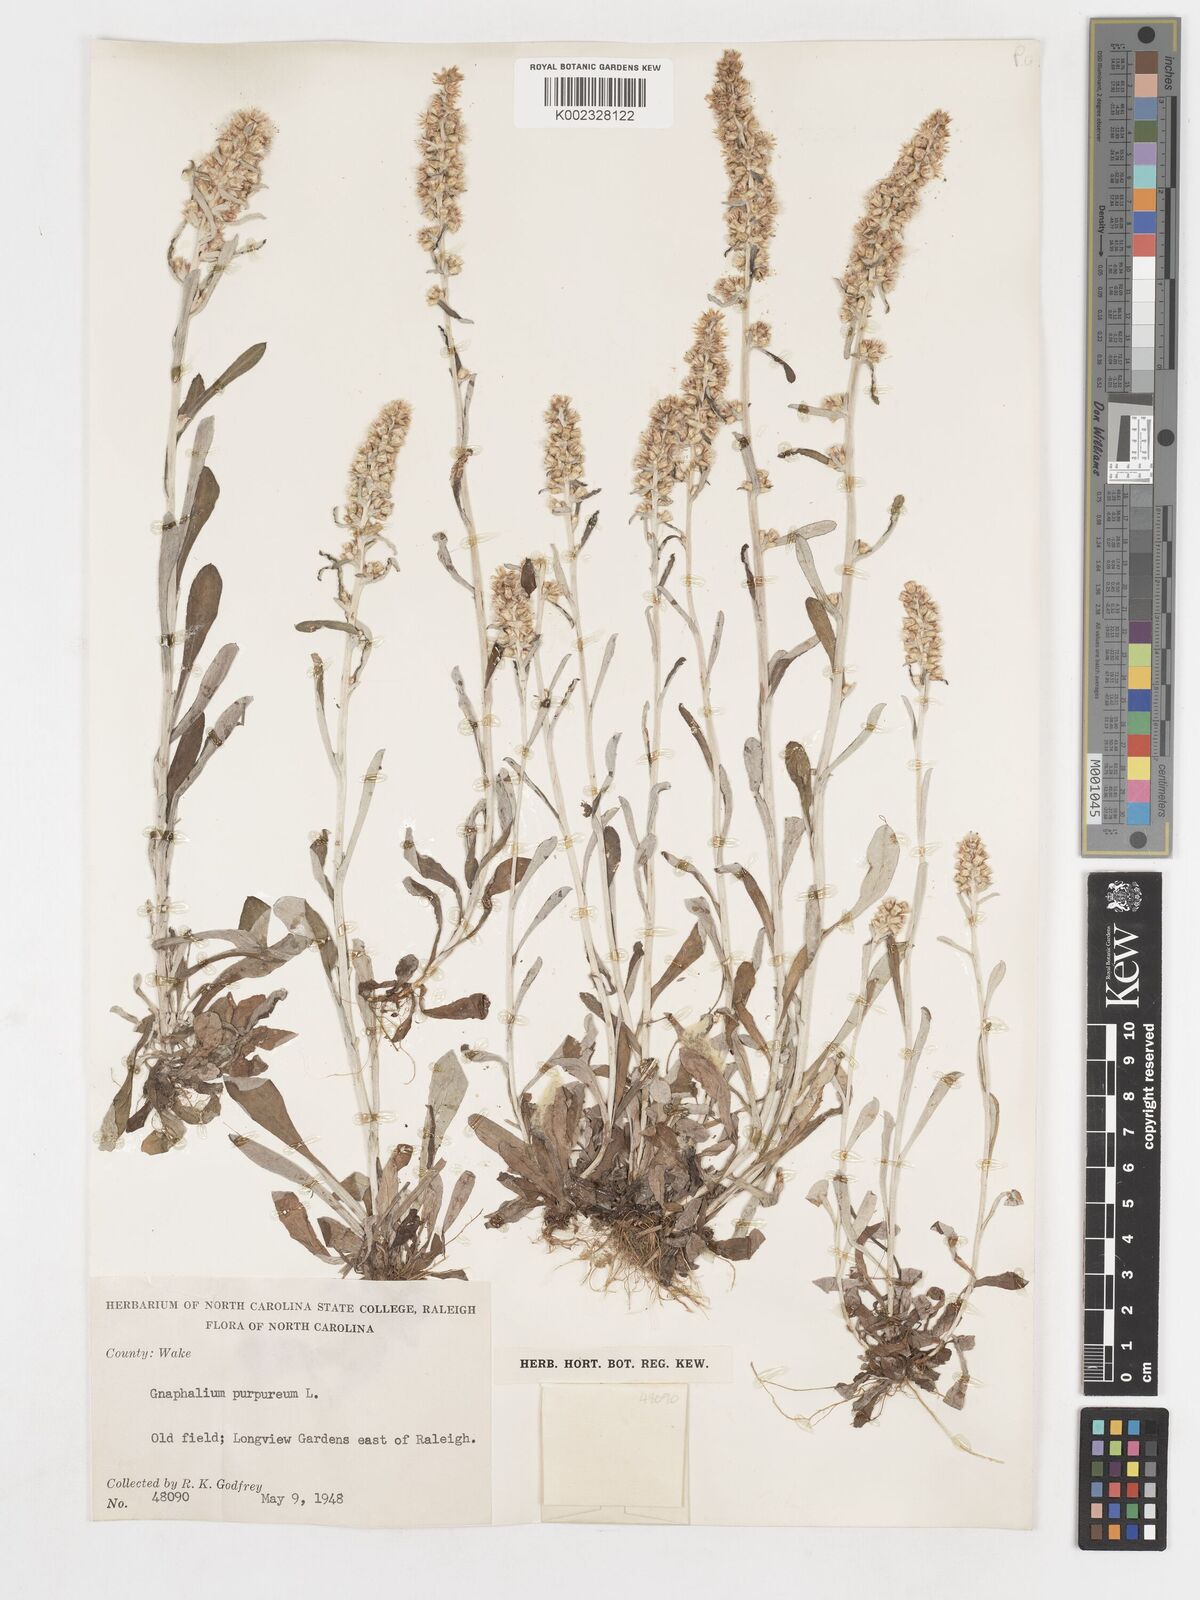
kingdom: Plantae
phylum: Tracheophyta
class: Magnoliopsida
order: Asterales
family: Asteraceae
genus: Gamochaeta
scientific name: Gamochaeta purpurea
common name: Purple cudweed
